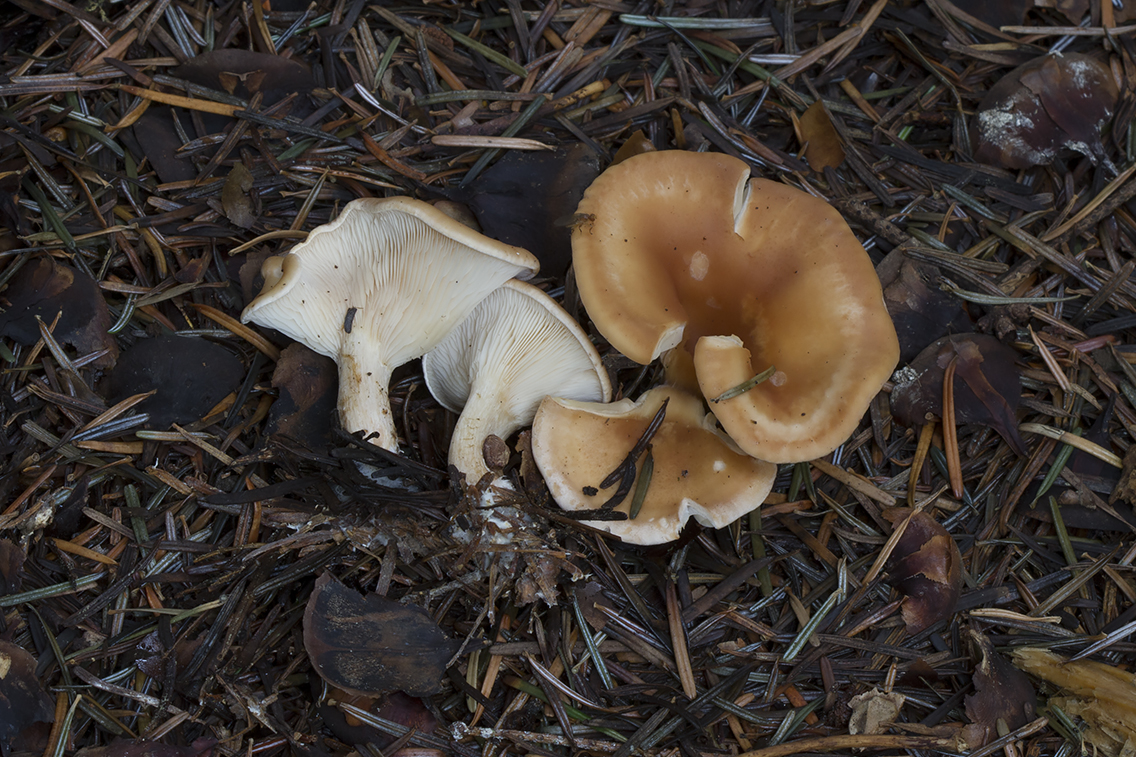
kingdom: Fungi
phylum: Basidiomycota
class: Agaricomycetes
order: Agaricales
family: Tricholomataceae
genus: Paralepista
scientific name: Paralepista flaccida
